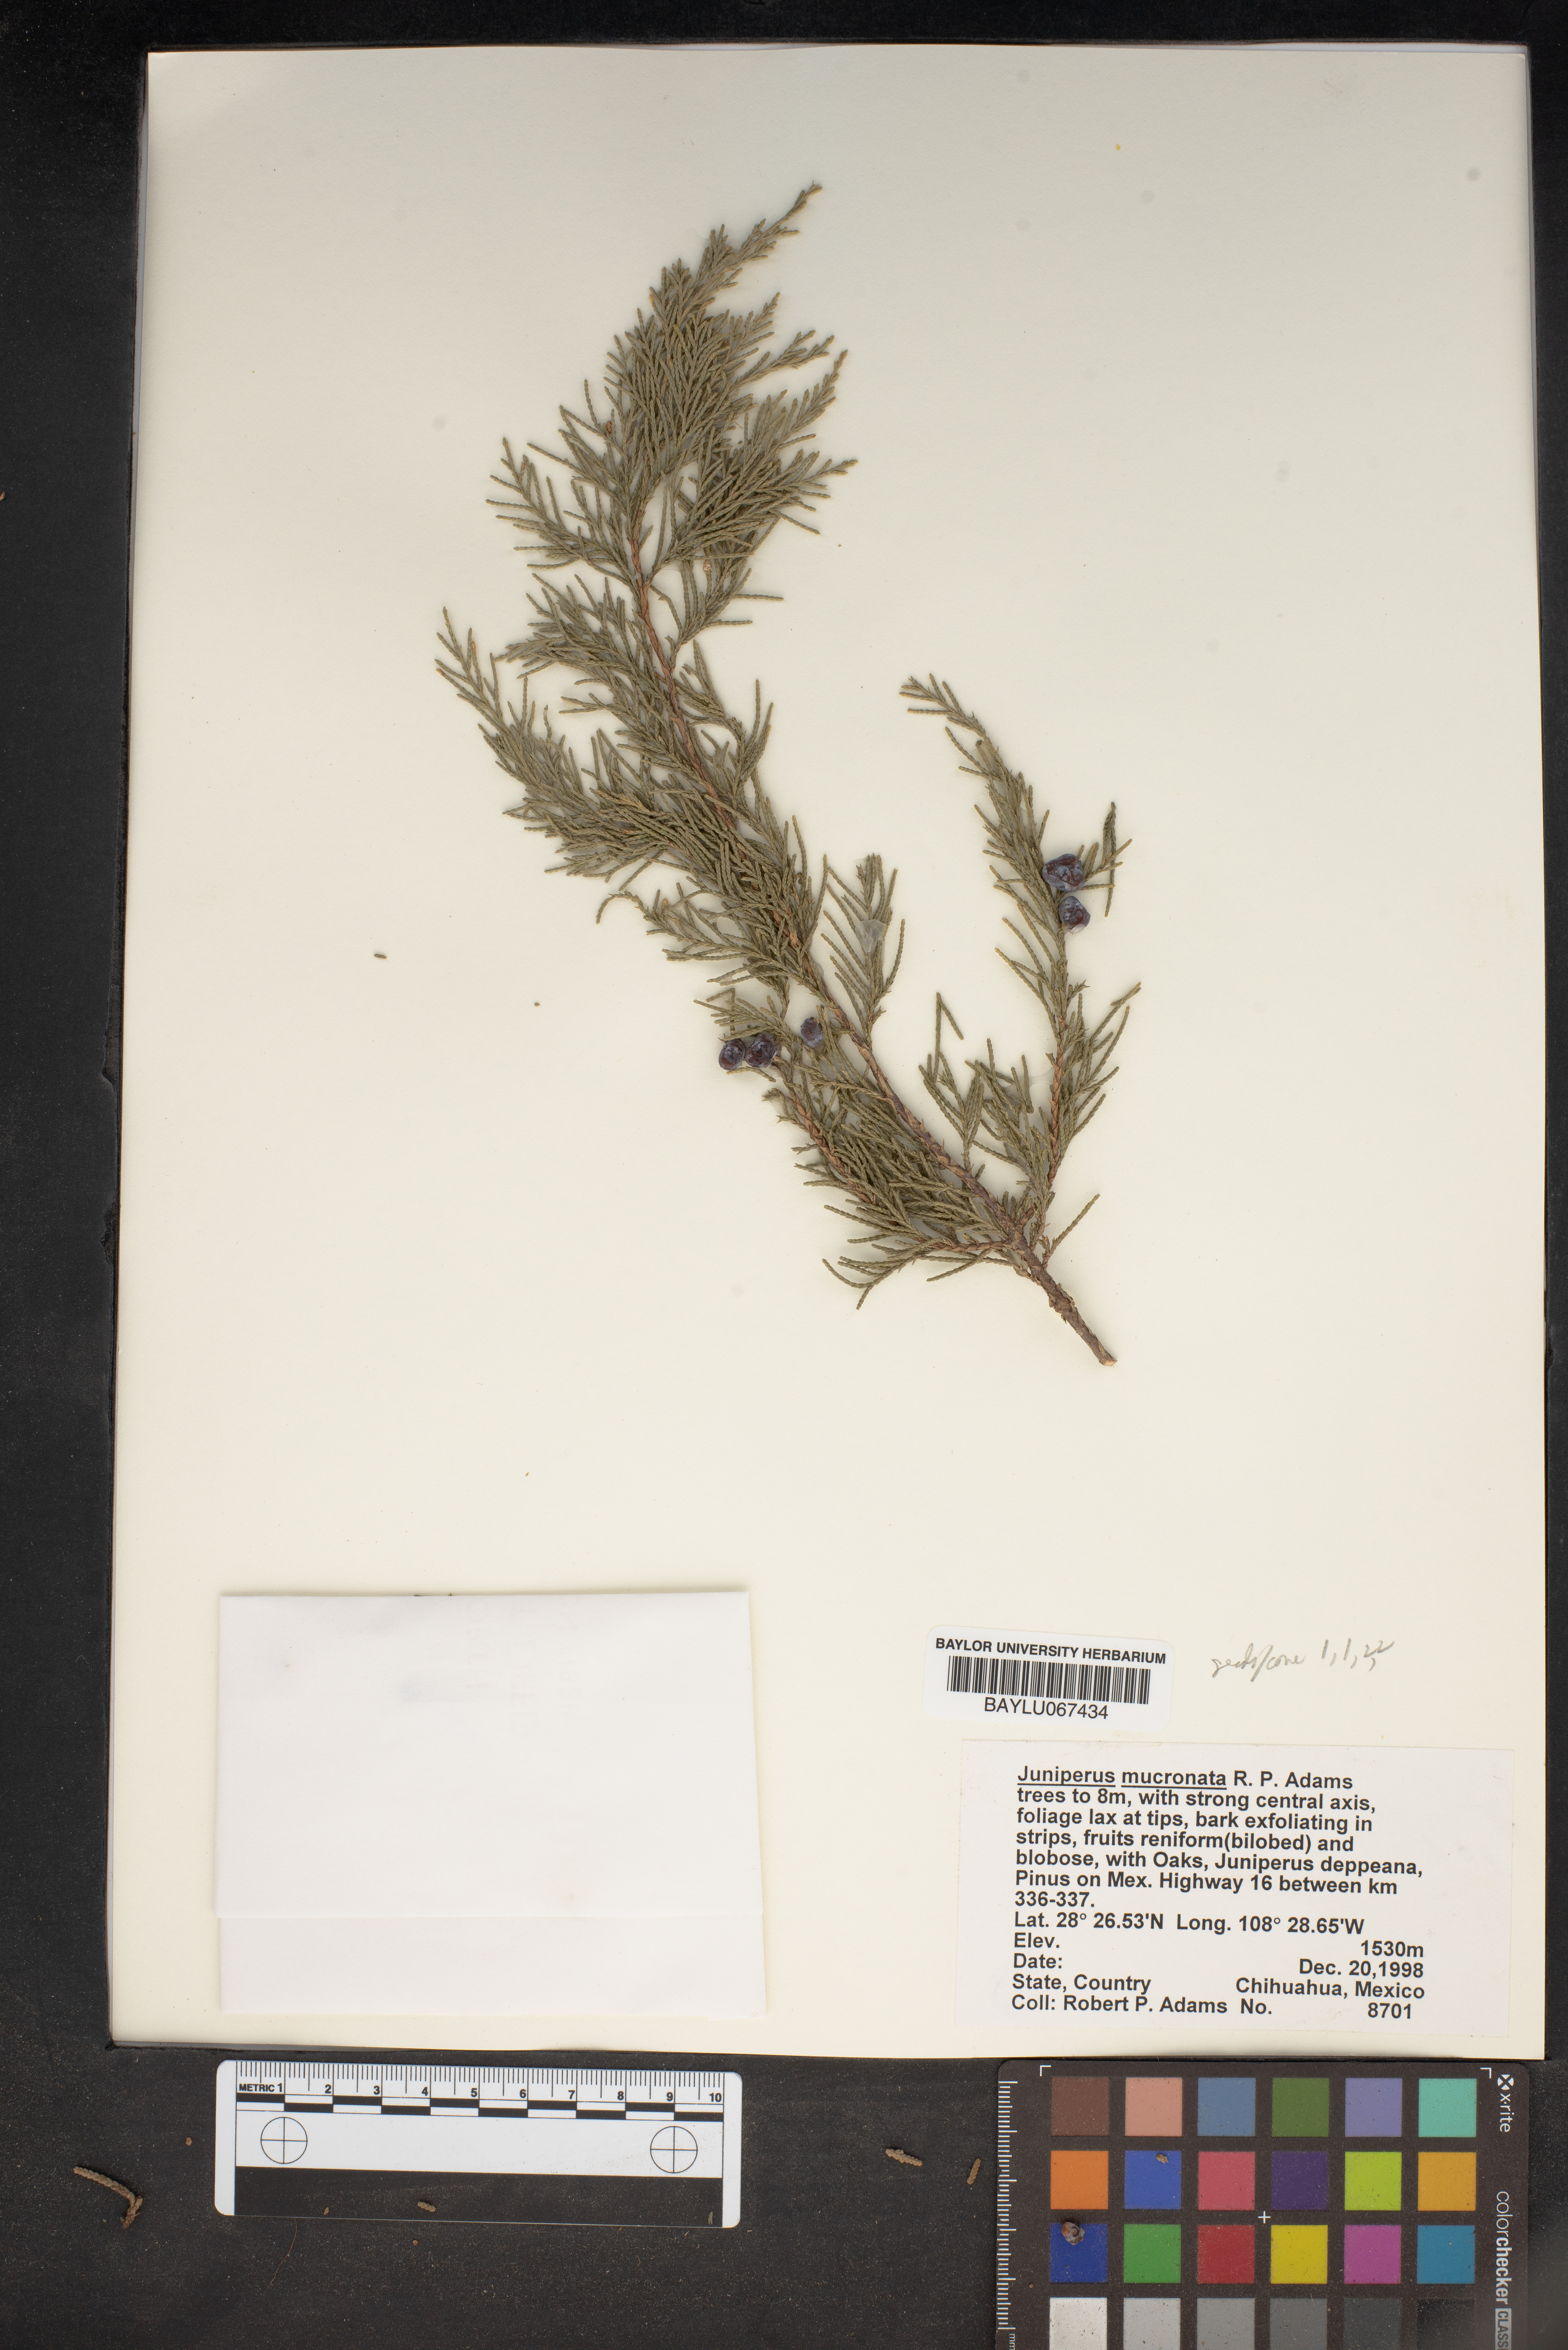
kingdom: Plantae
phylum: Tracheophyta
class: Pinopsida
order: Pinales
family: Cupressaceae
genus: Juniperus
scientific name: Juniperus blancoi
